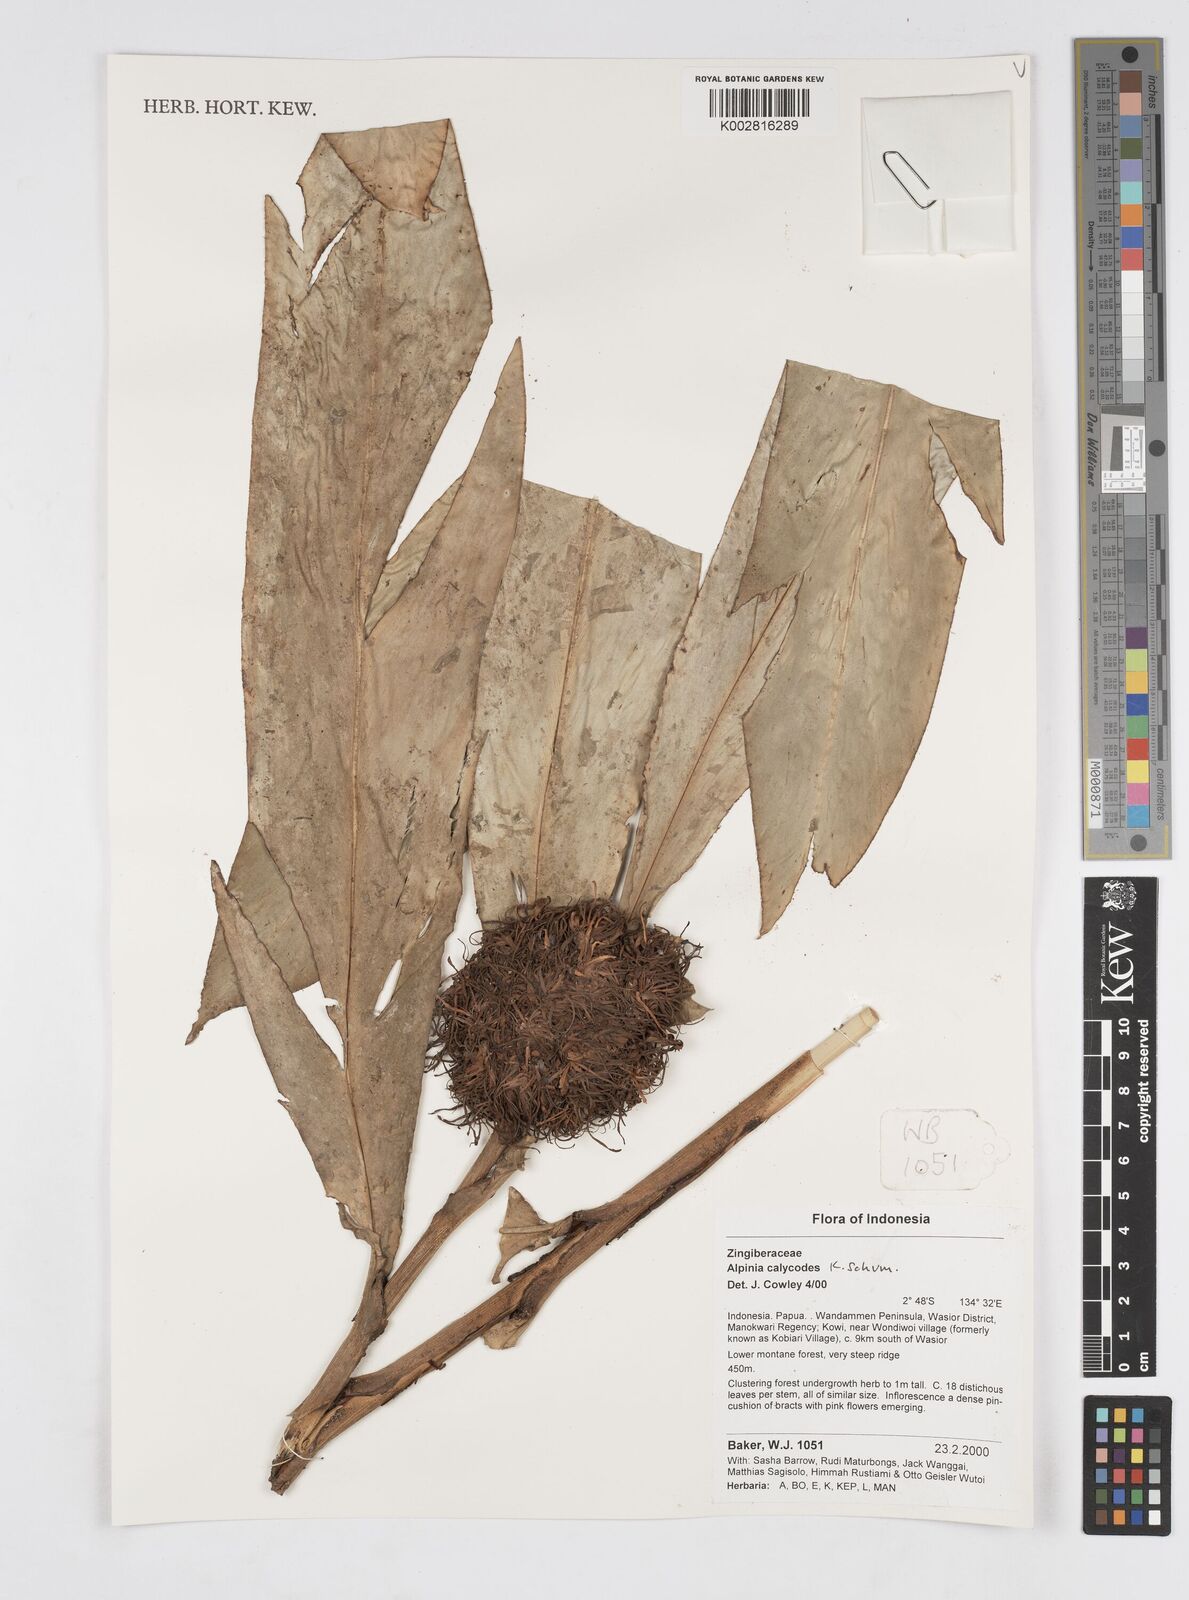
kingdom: Plantae
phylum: Tracheophyta
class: Liliopsida
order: Zingiberales
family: Zingiberaceae
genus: Alpinia
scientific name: Alpinia calycodes
